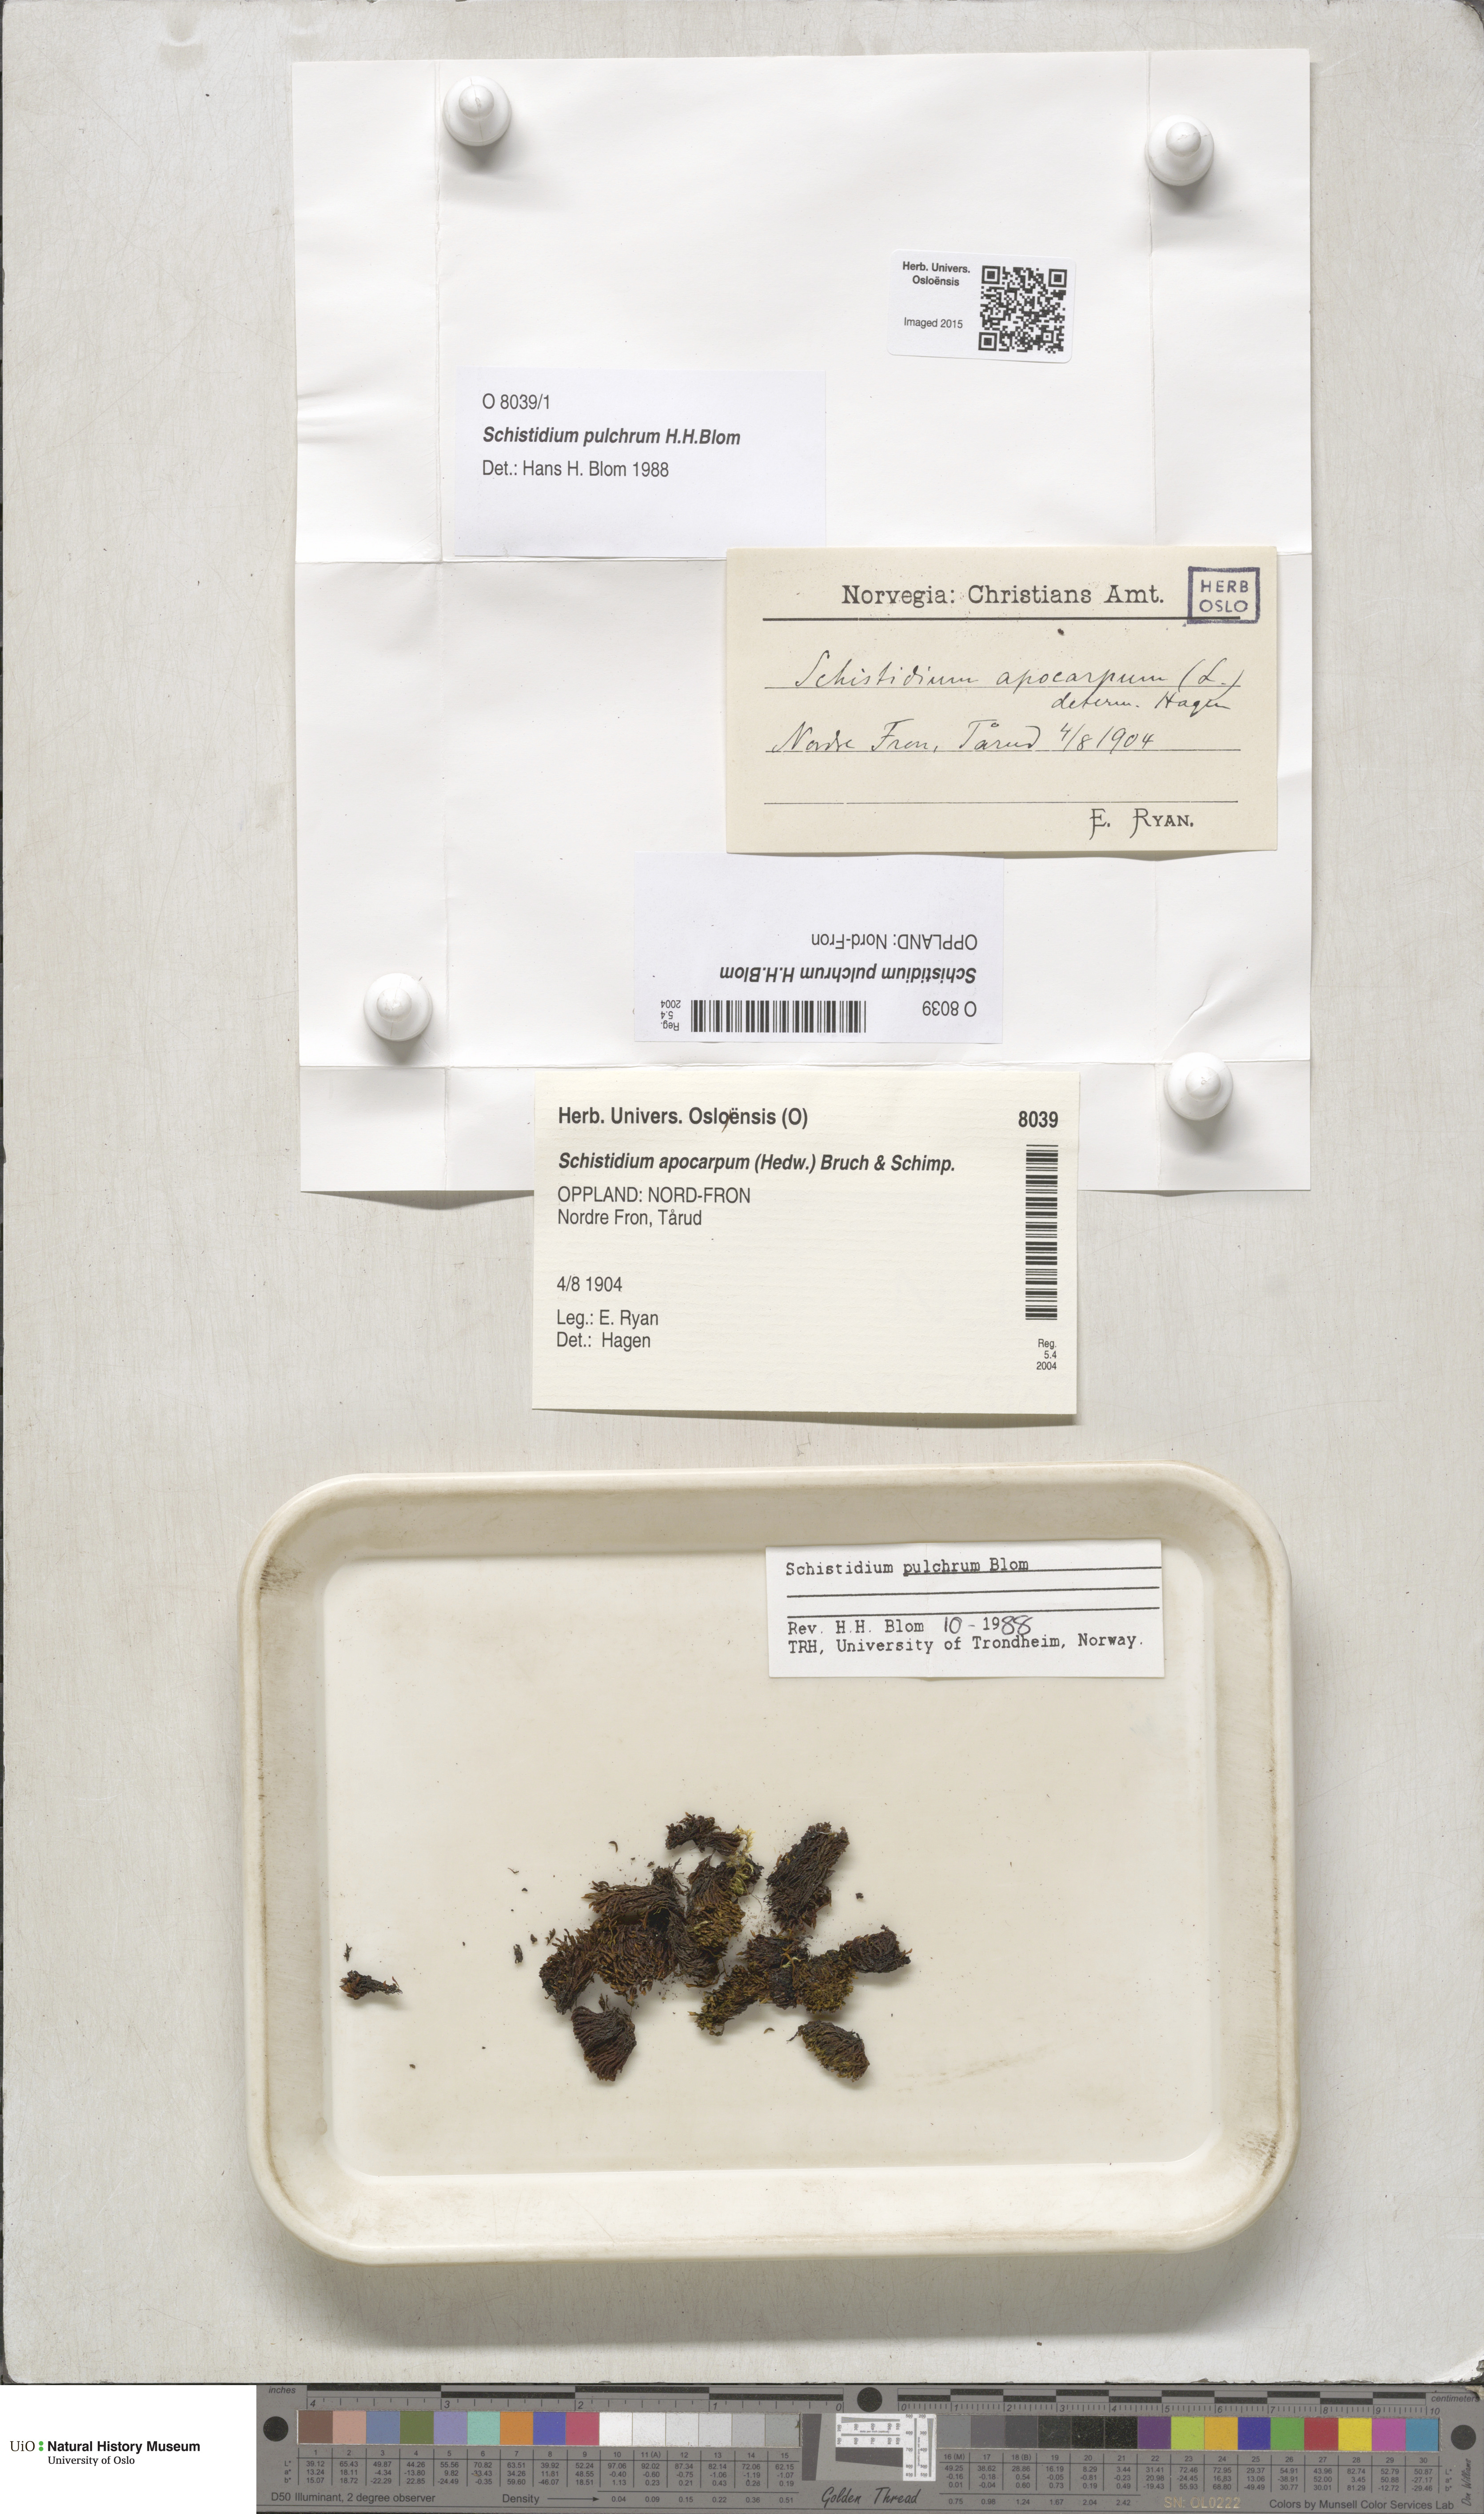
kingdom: Plantae
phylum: Bryophyta
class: Bryopsida
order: Grimmiales
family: Grimmiaceae
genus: Schistidium
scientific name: Schistidium pulchrum
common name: Showy bloom moss
